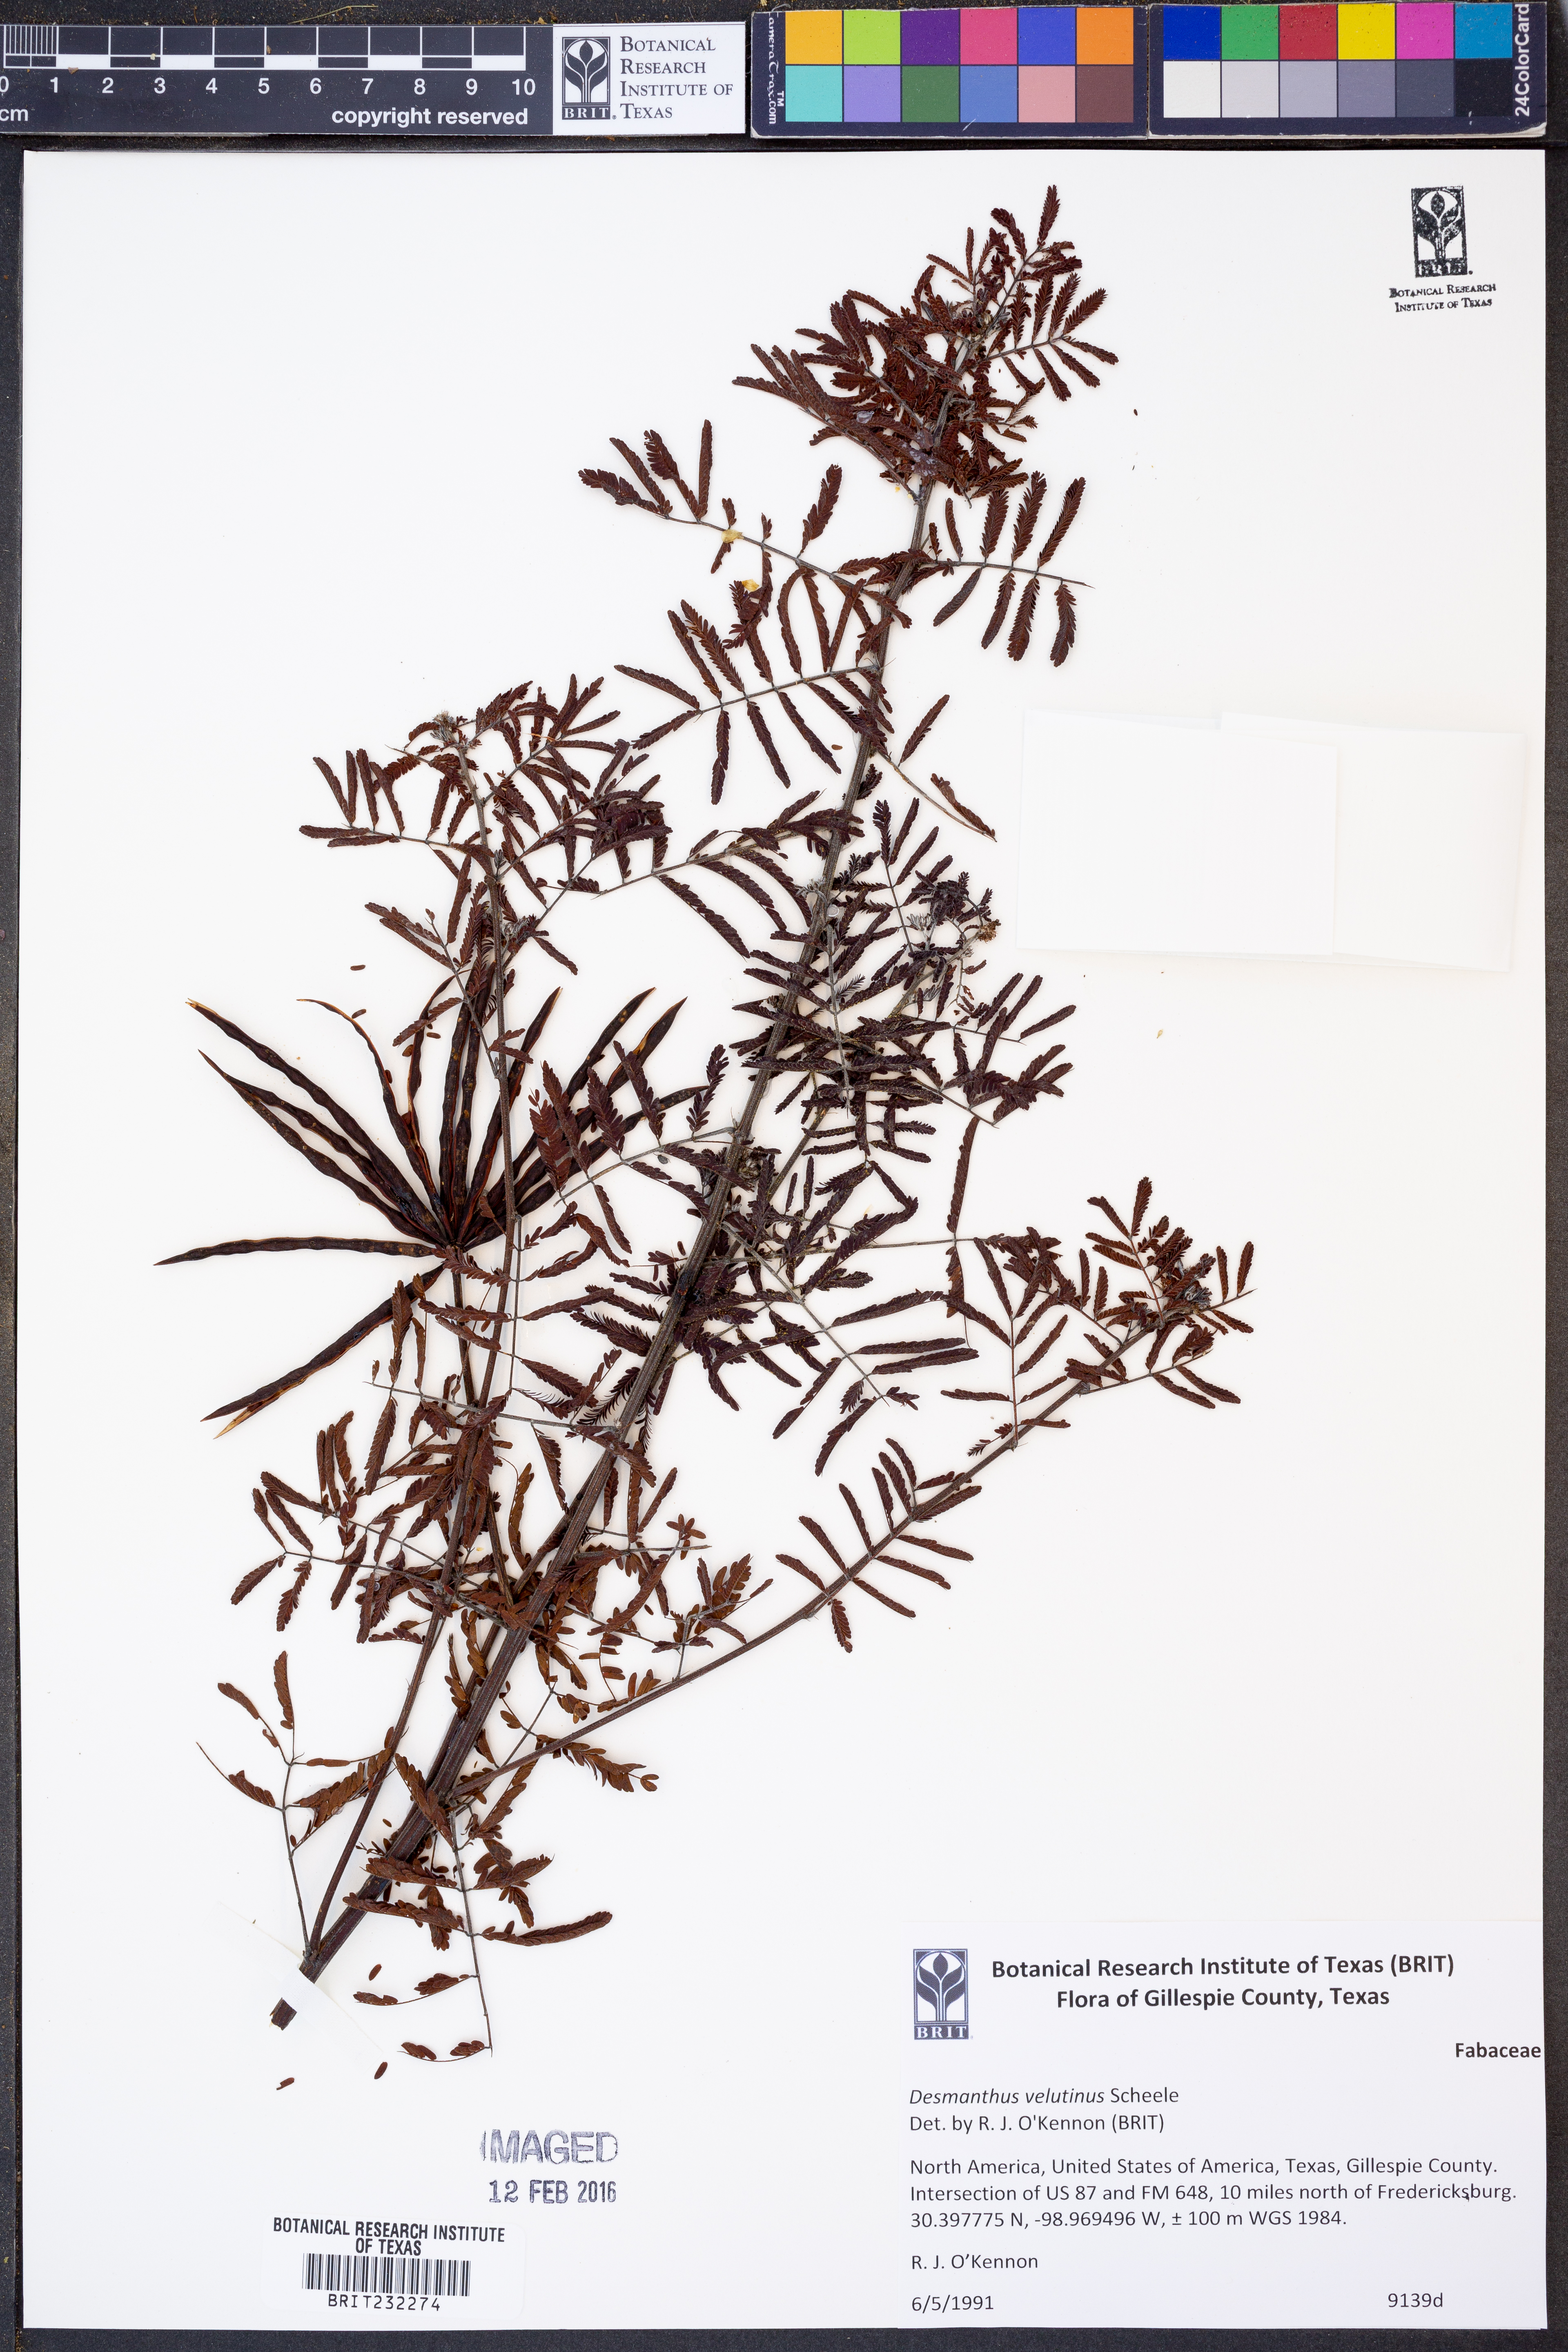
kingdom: Plantae
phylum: Tracheophyta
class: Magnoliopsida
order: Fabales
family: Fabaceae
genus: Desmanthus
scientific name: Desmanthus velutinus
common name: Velvet bundle-flower
